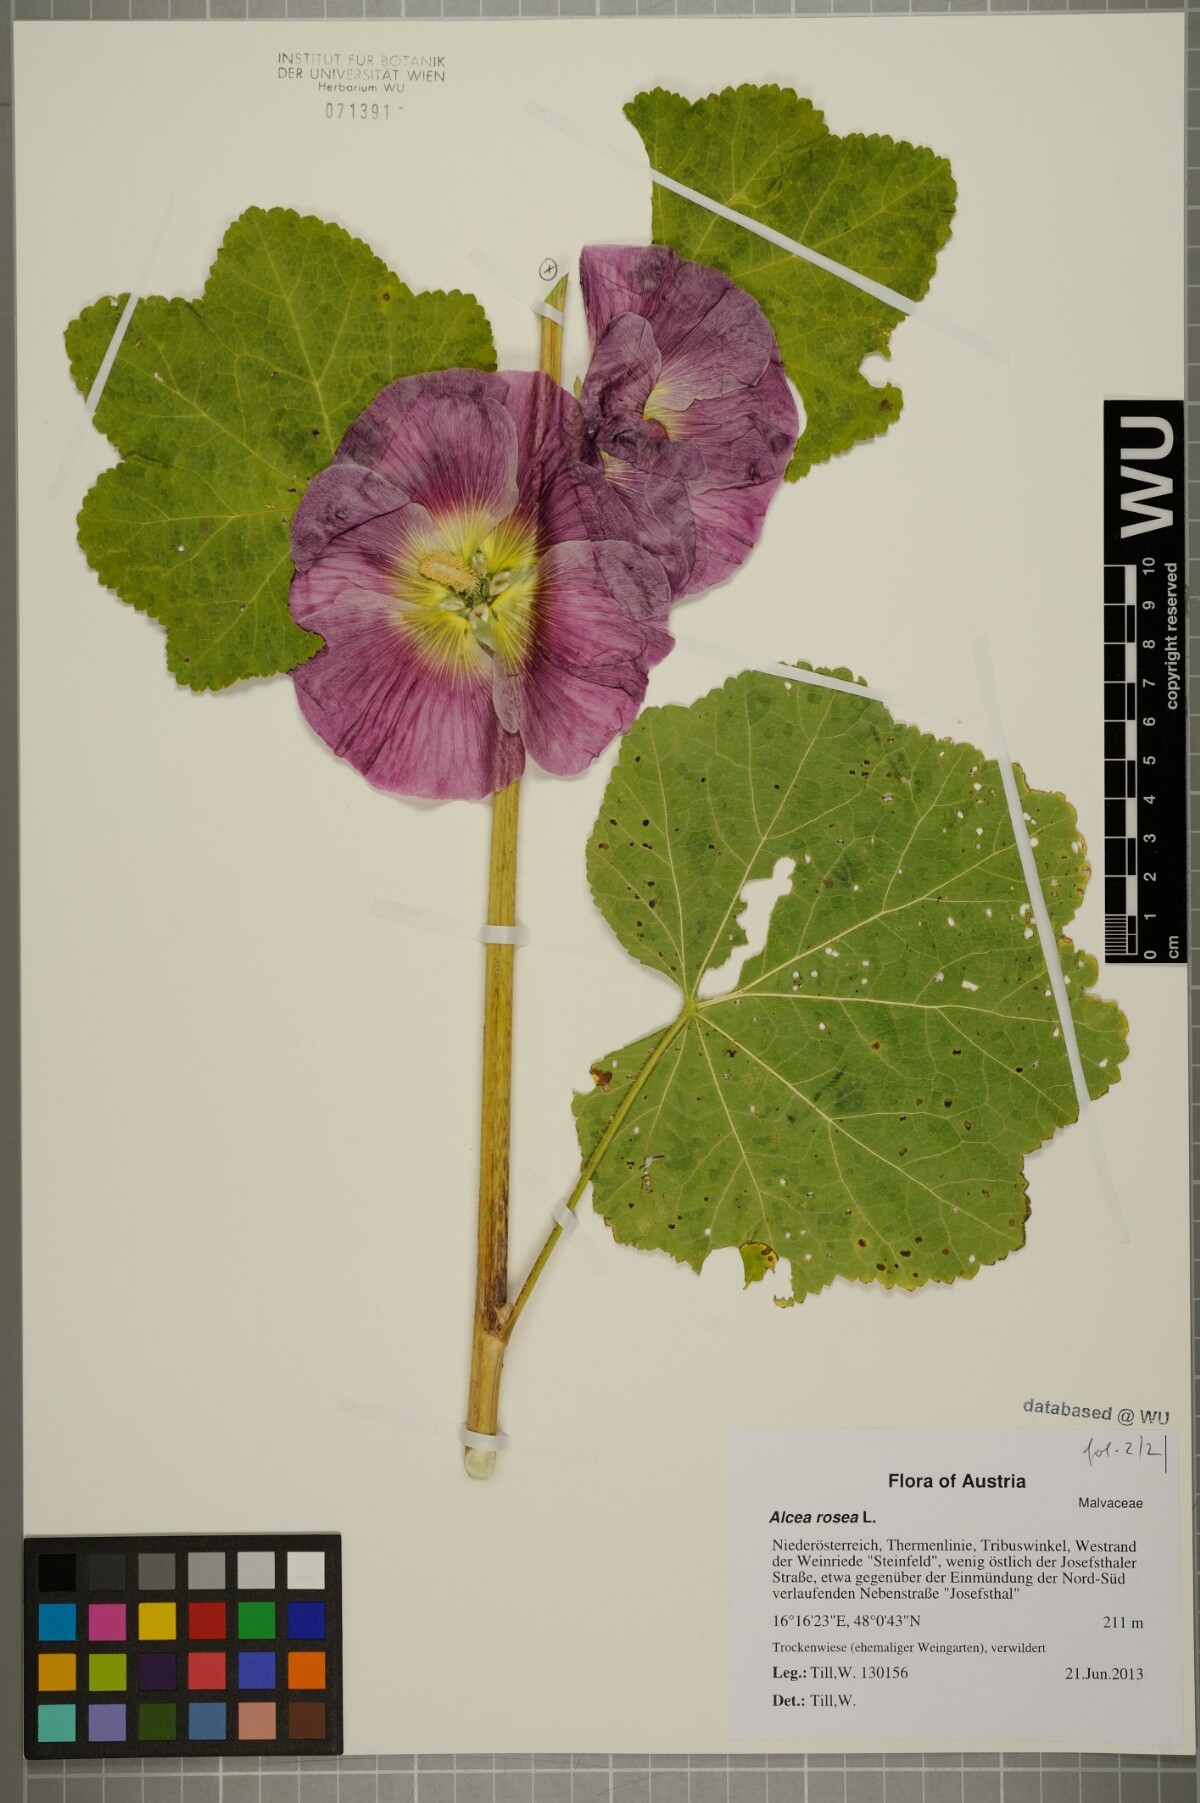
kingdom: Plantae
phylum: Tracheophyta
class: Magnoliopsida
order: Malvales
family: Malvaceae
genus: Alcea
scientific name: Alcea rosea
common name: Hollyhock
